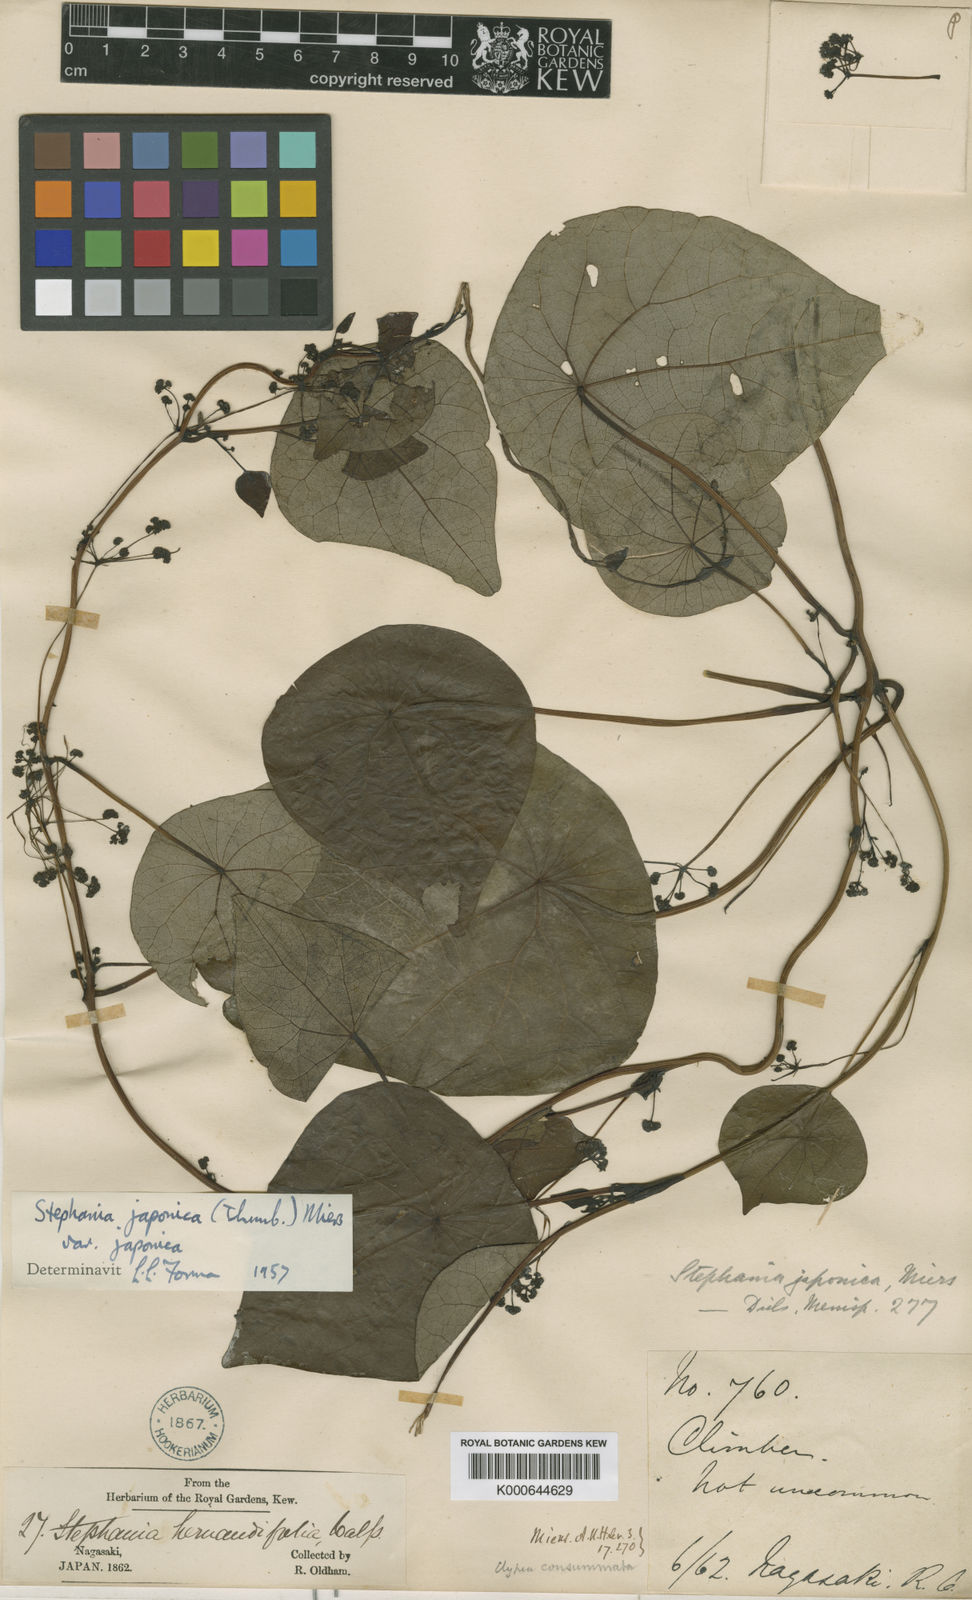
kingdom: Plantae
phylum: Tracheophyta
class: Magnoliopsida
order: Ranunculales
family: Menispermaceae
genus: Stephania
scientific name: Stephania japonica
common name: Snake vine
